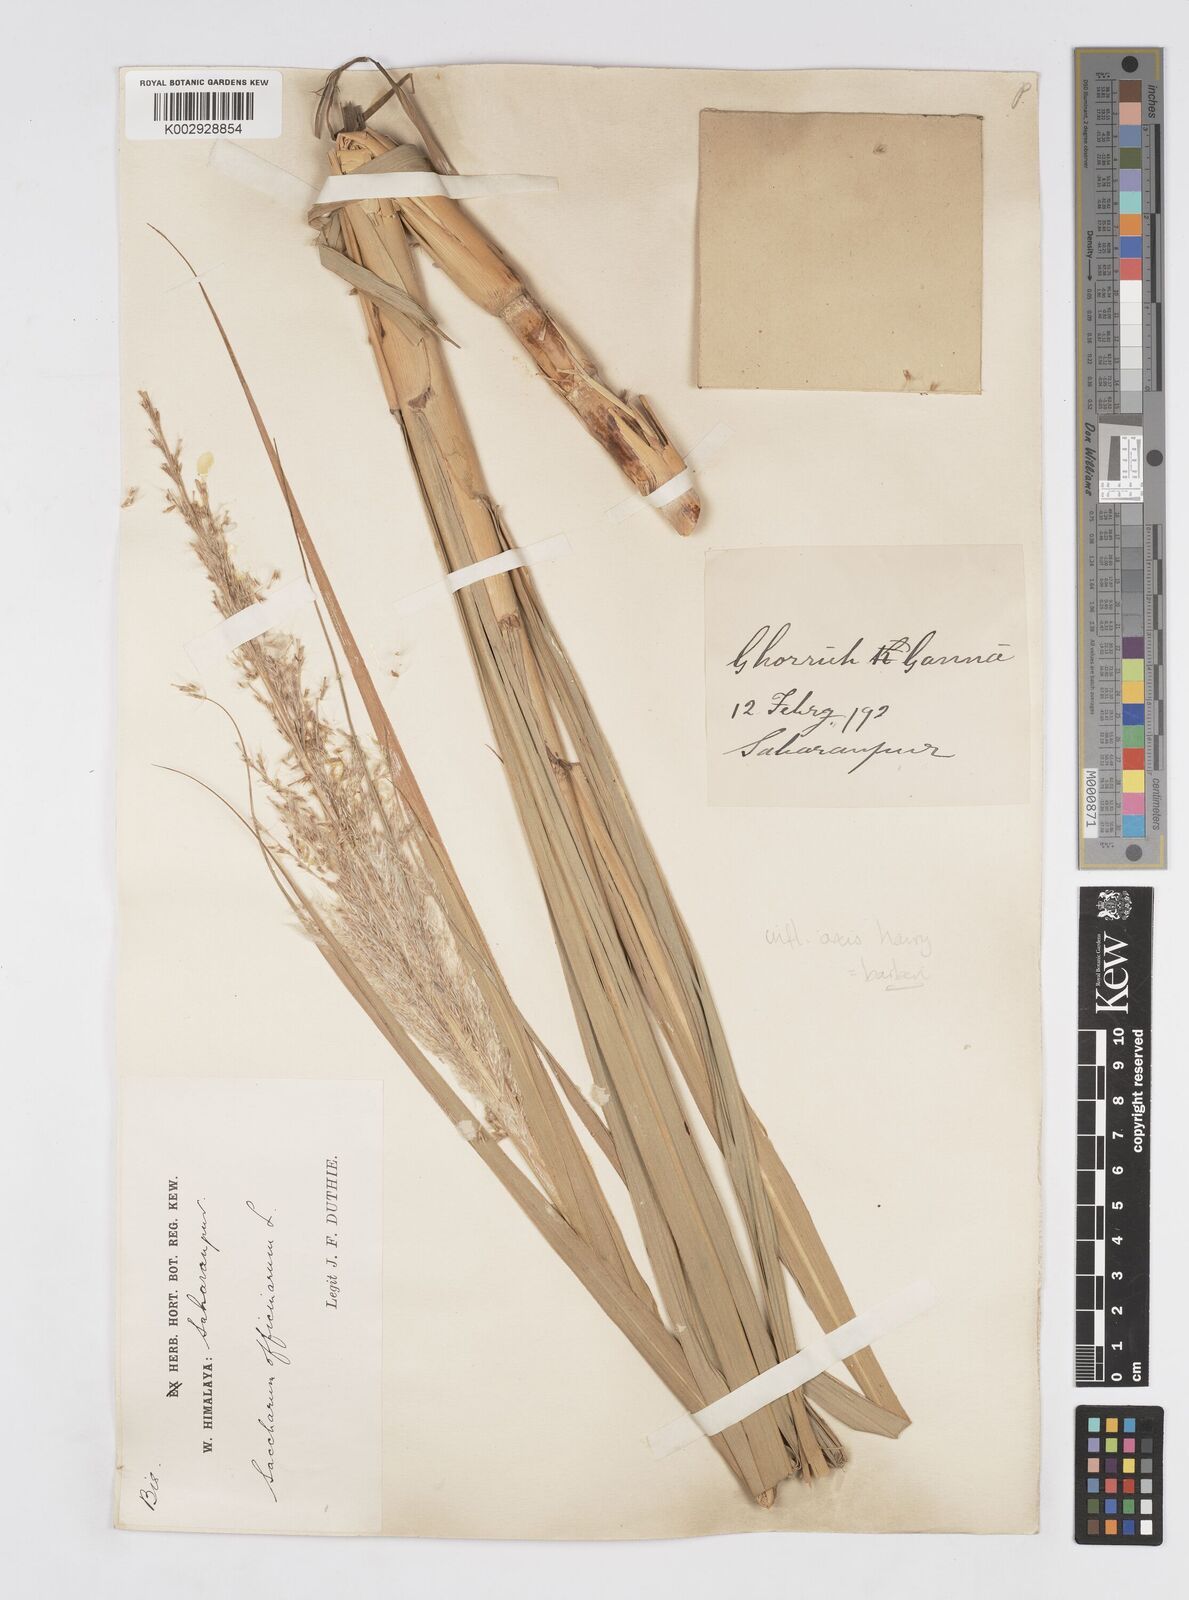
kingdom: Plantae
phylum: Tracheophyta
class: Liliopsida
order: Poales
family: Poaceae
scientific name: Poaceae
